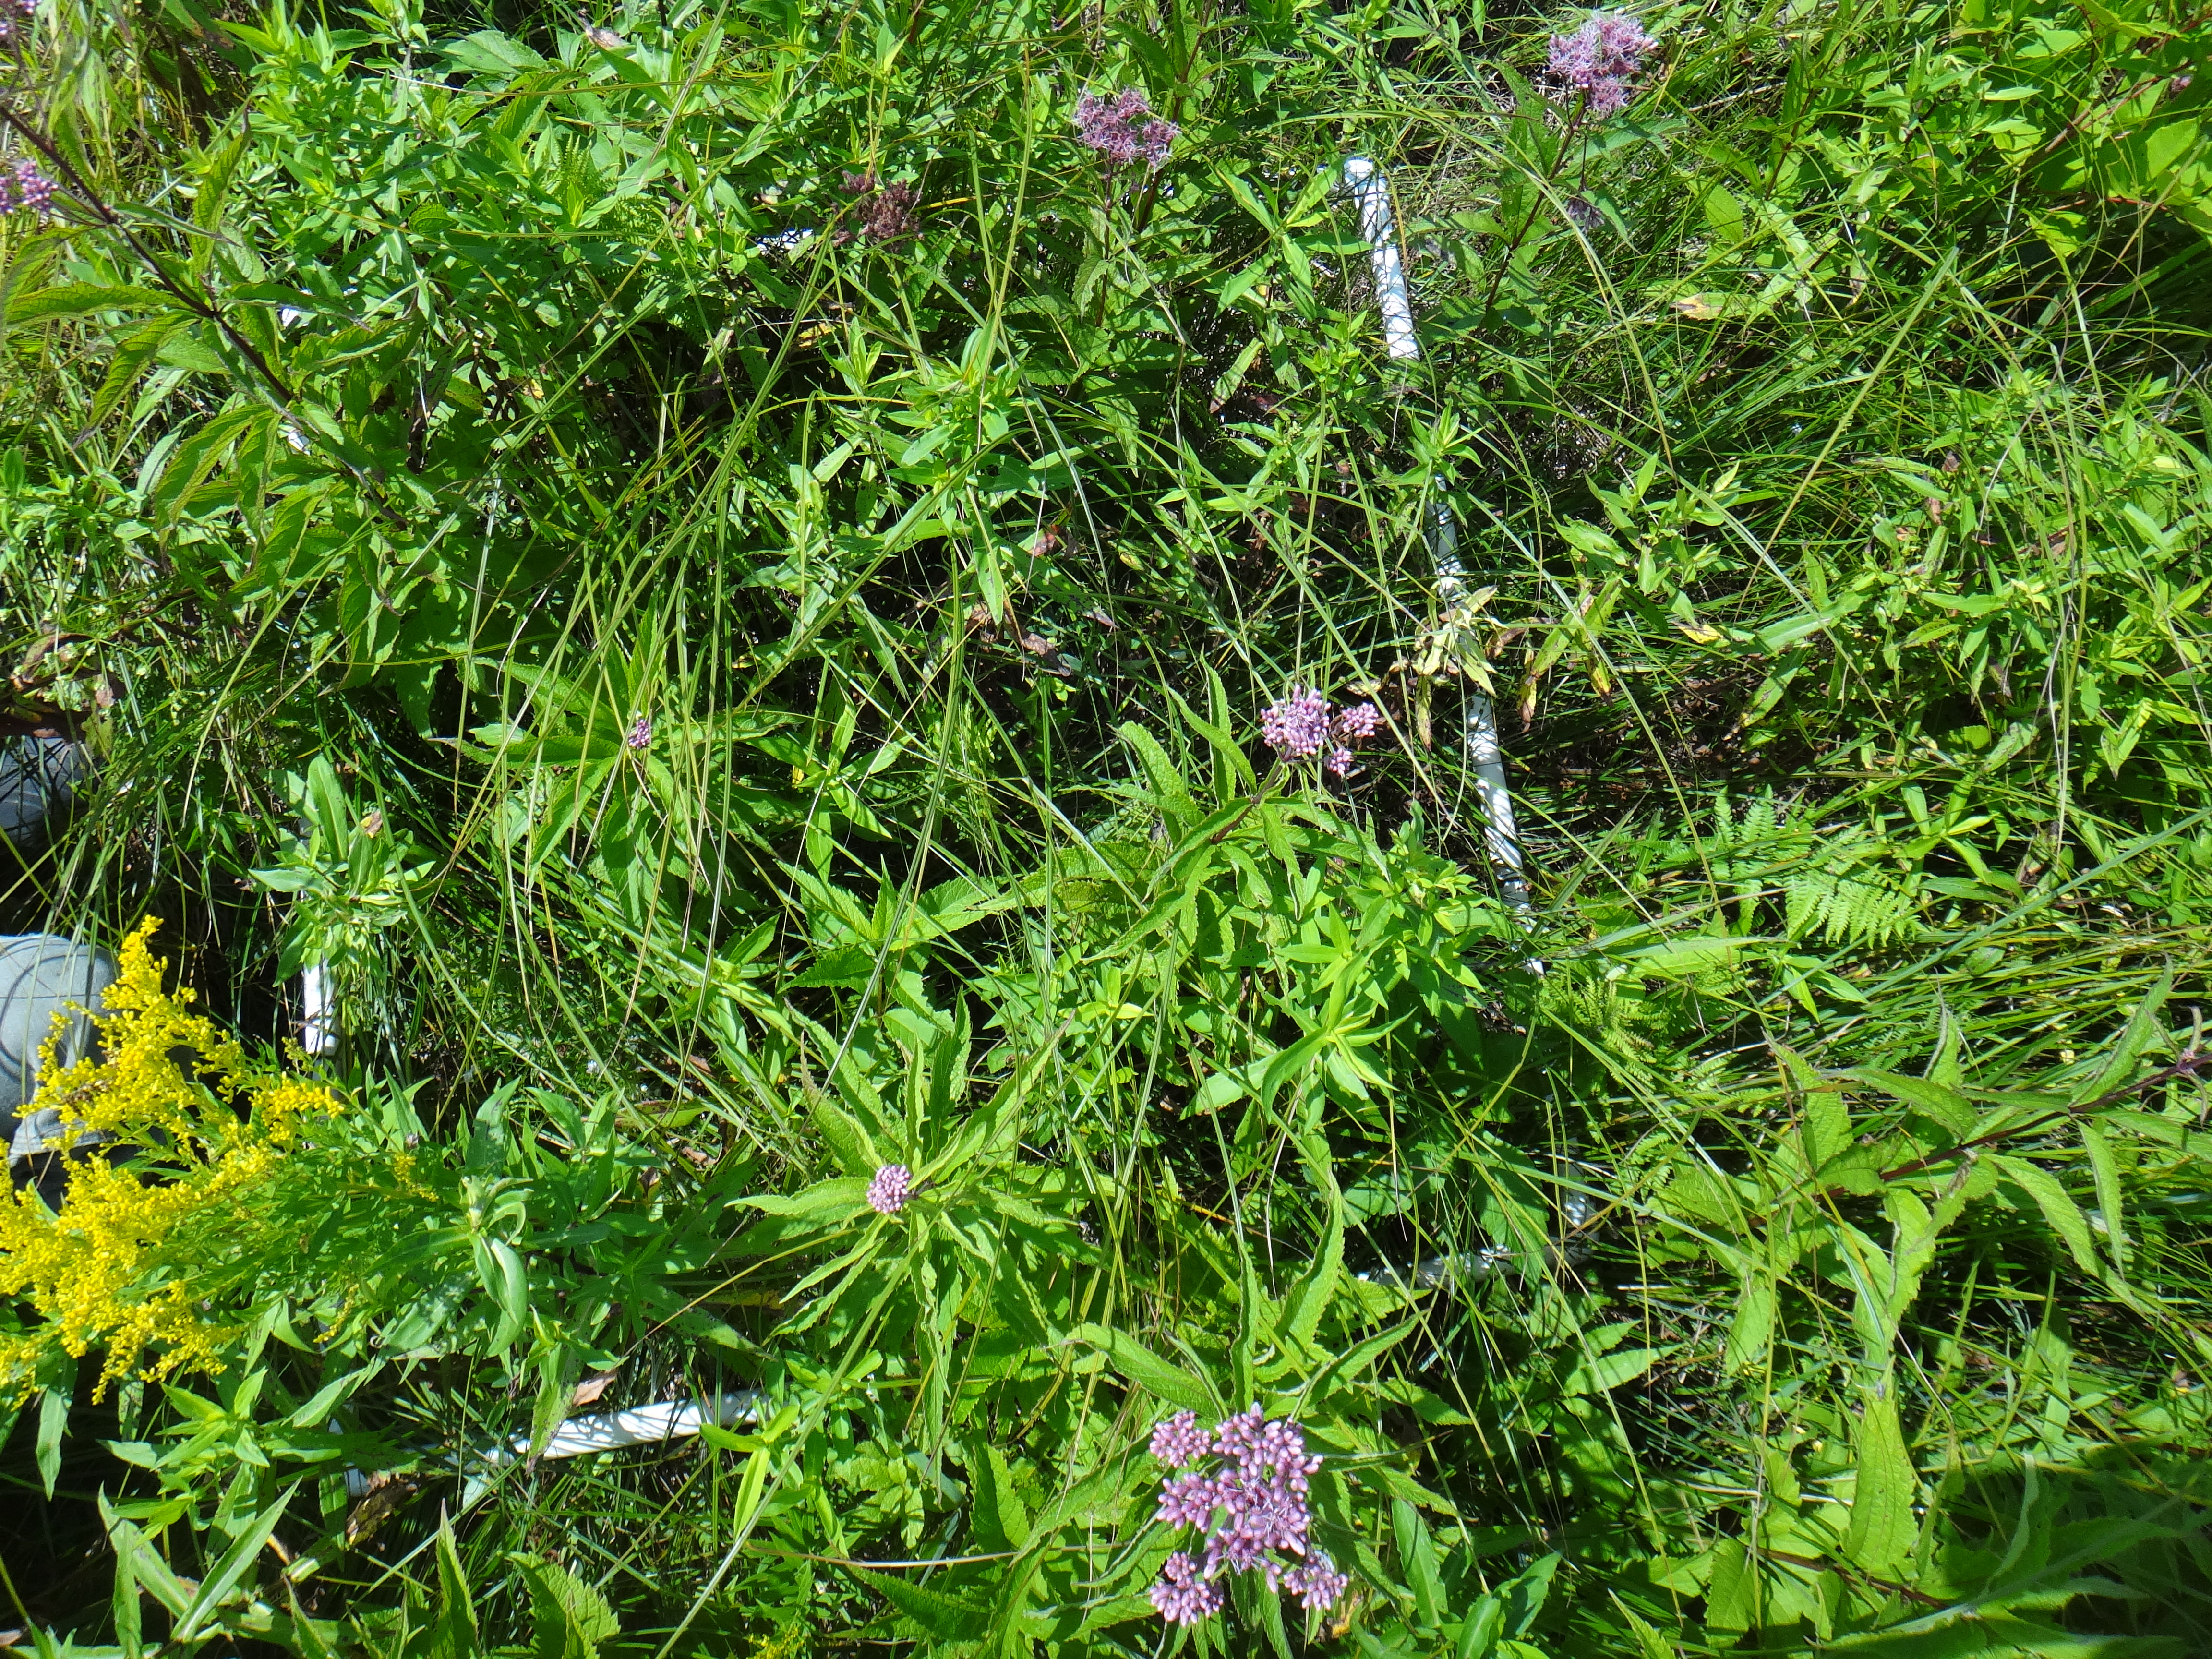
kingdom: Plantae
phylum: Tracheophyta
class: Magnoliopsida
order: Fabales
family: Fabaceae
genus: Lathyrus
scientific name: Lathyrus palustris
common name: Marsh pea
